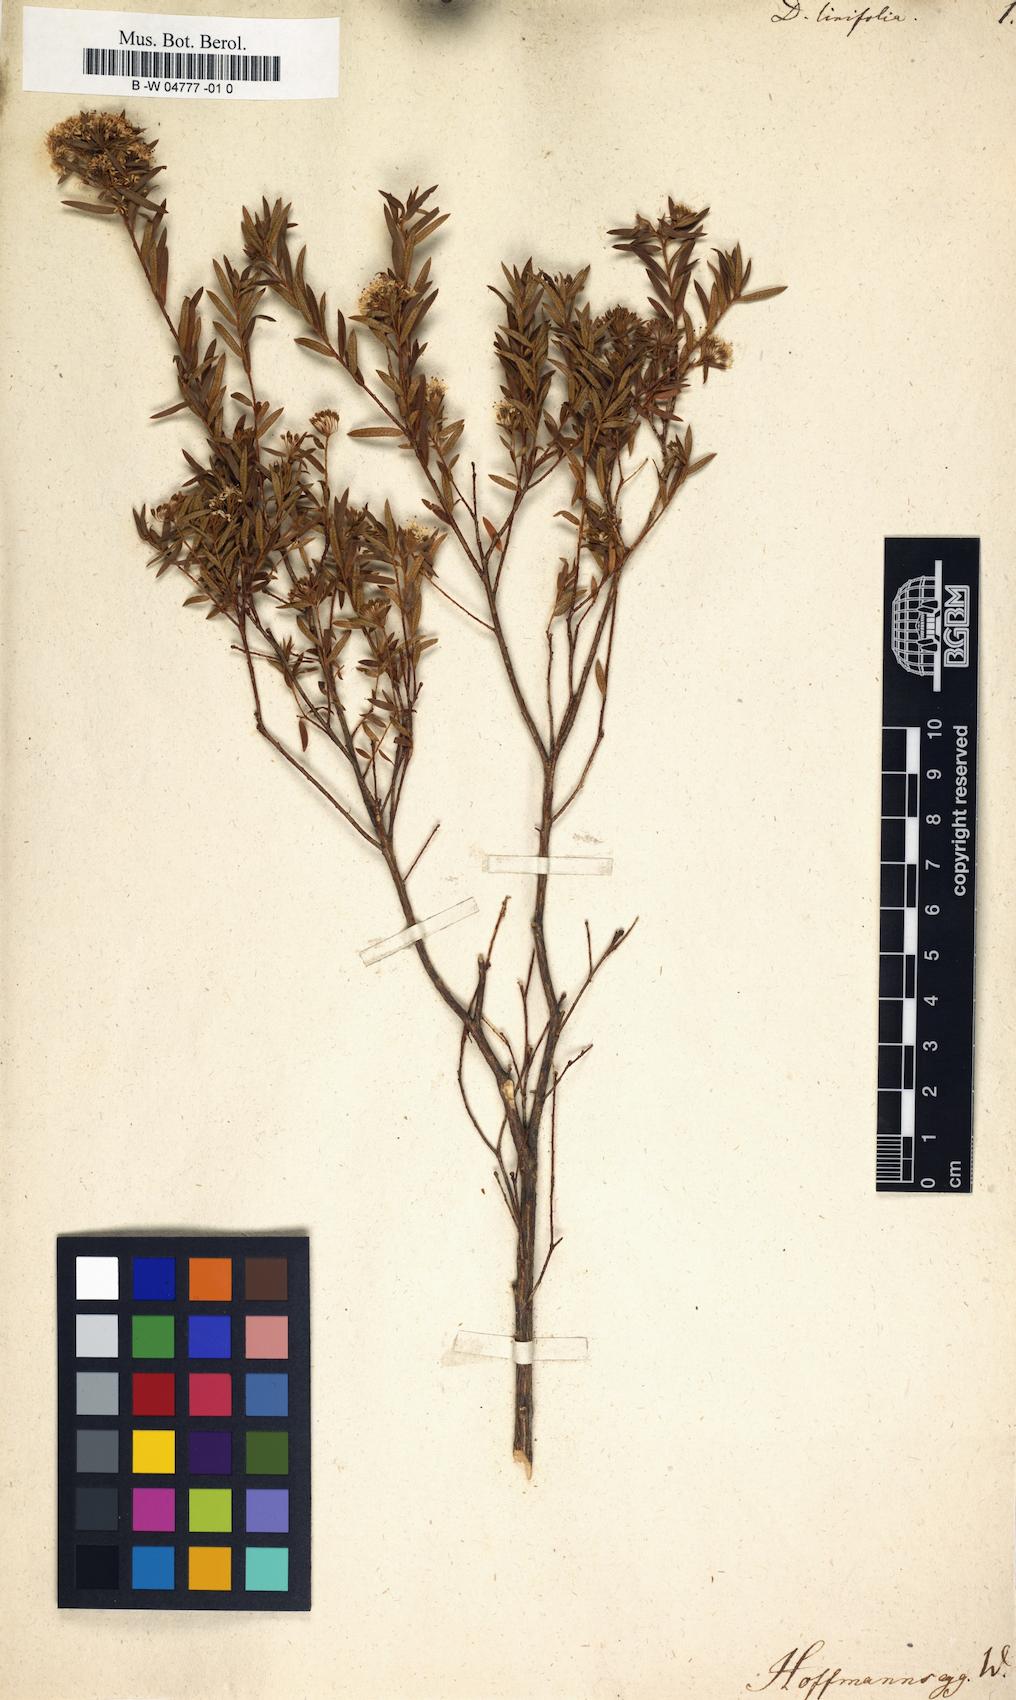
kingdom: Plantae
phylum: Tracheophyta
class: Magnoliopsida
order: Sapindales
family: Rutaceae
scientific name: Rutaceae
